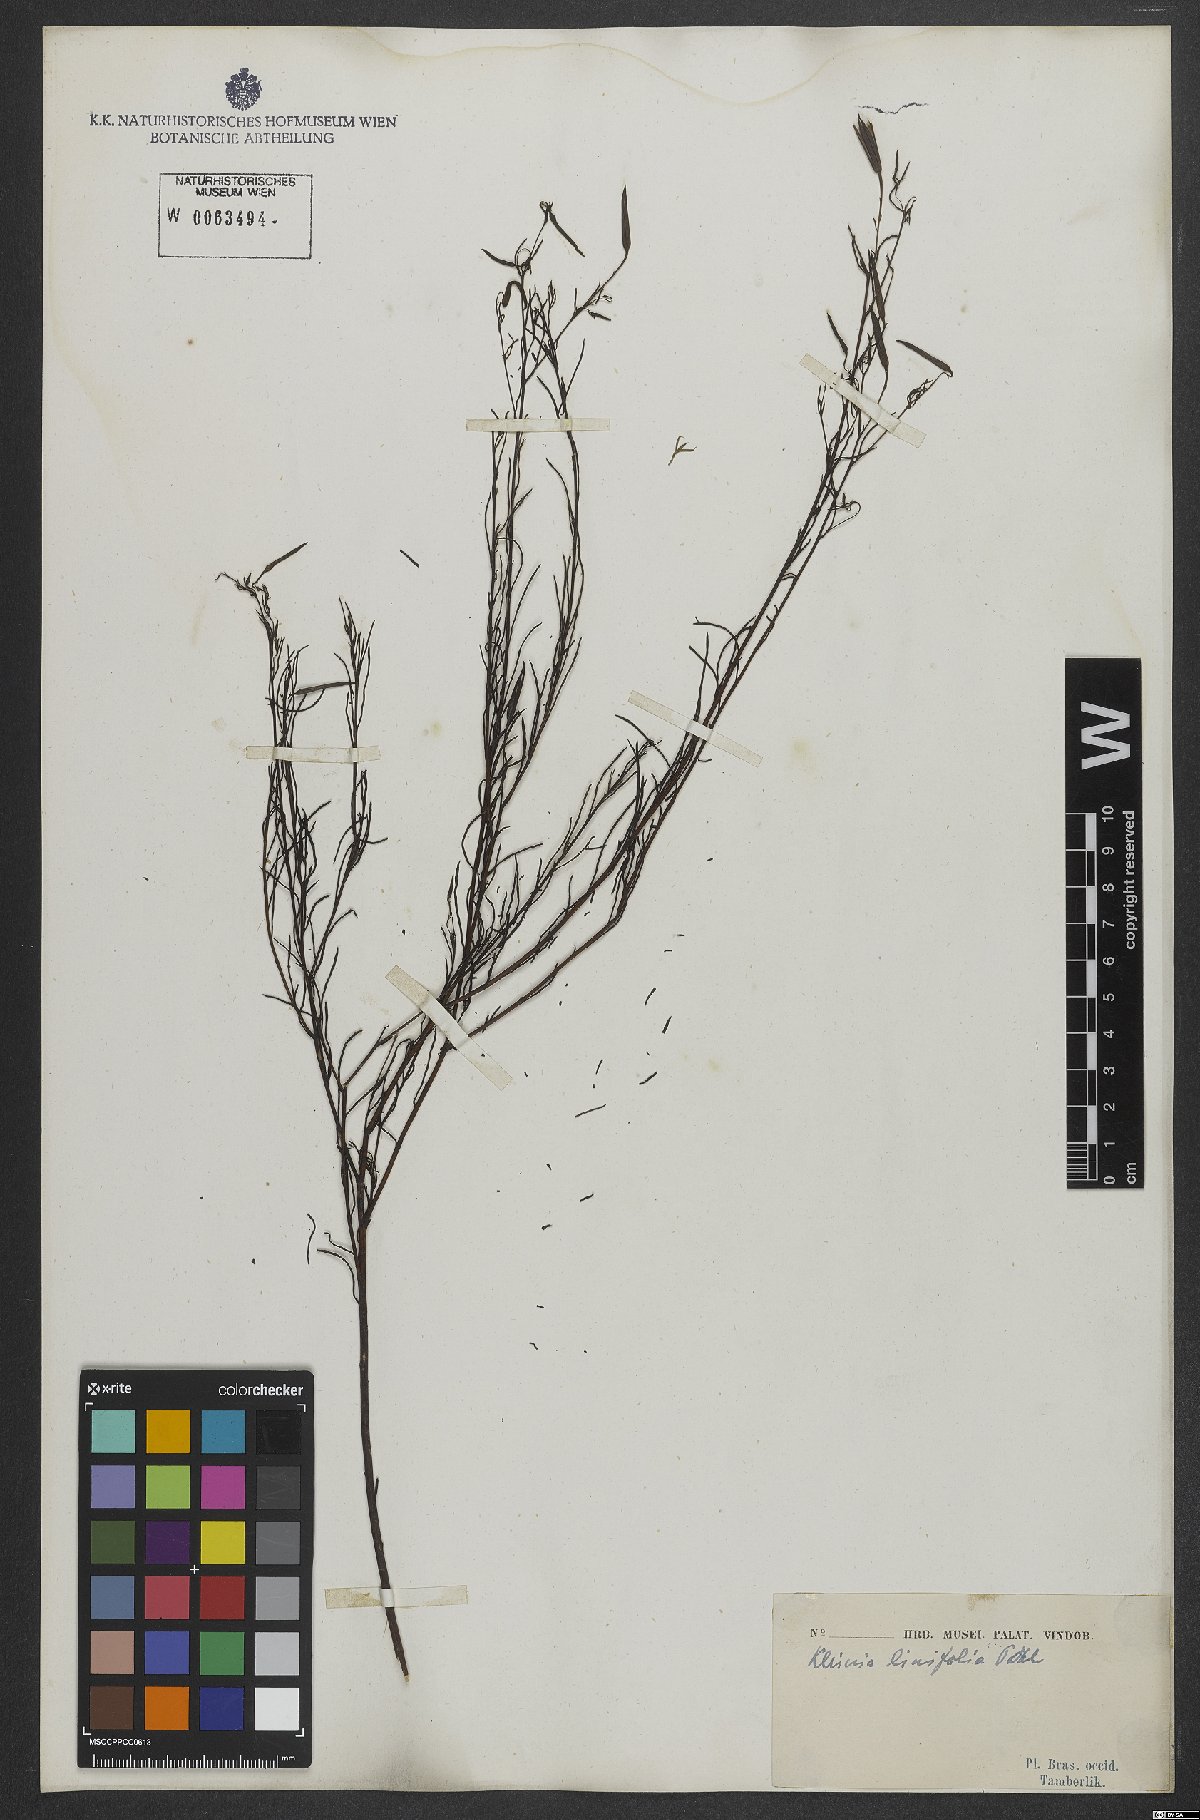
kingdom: Plantae
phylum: Tracheophyta
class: Magnoliopsida
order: Asterales
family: Asteraceae
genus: Porophyllum
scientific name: Porophyllum linifolium
